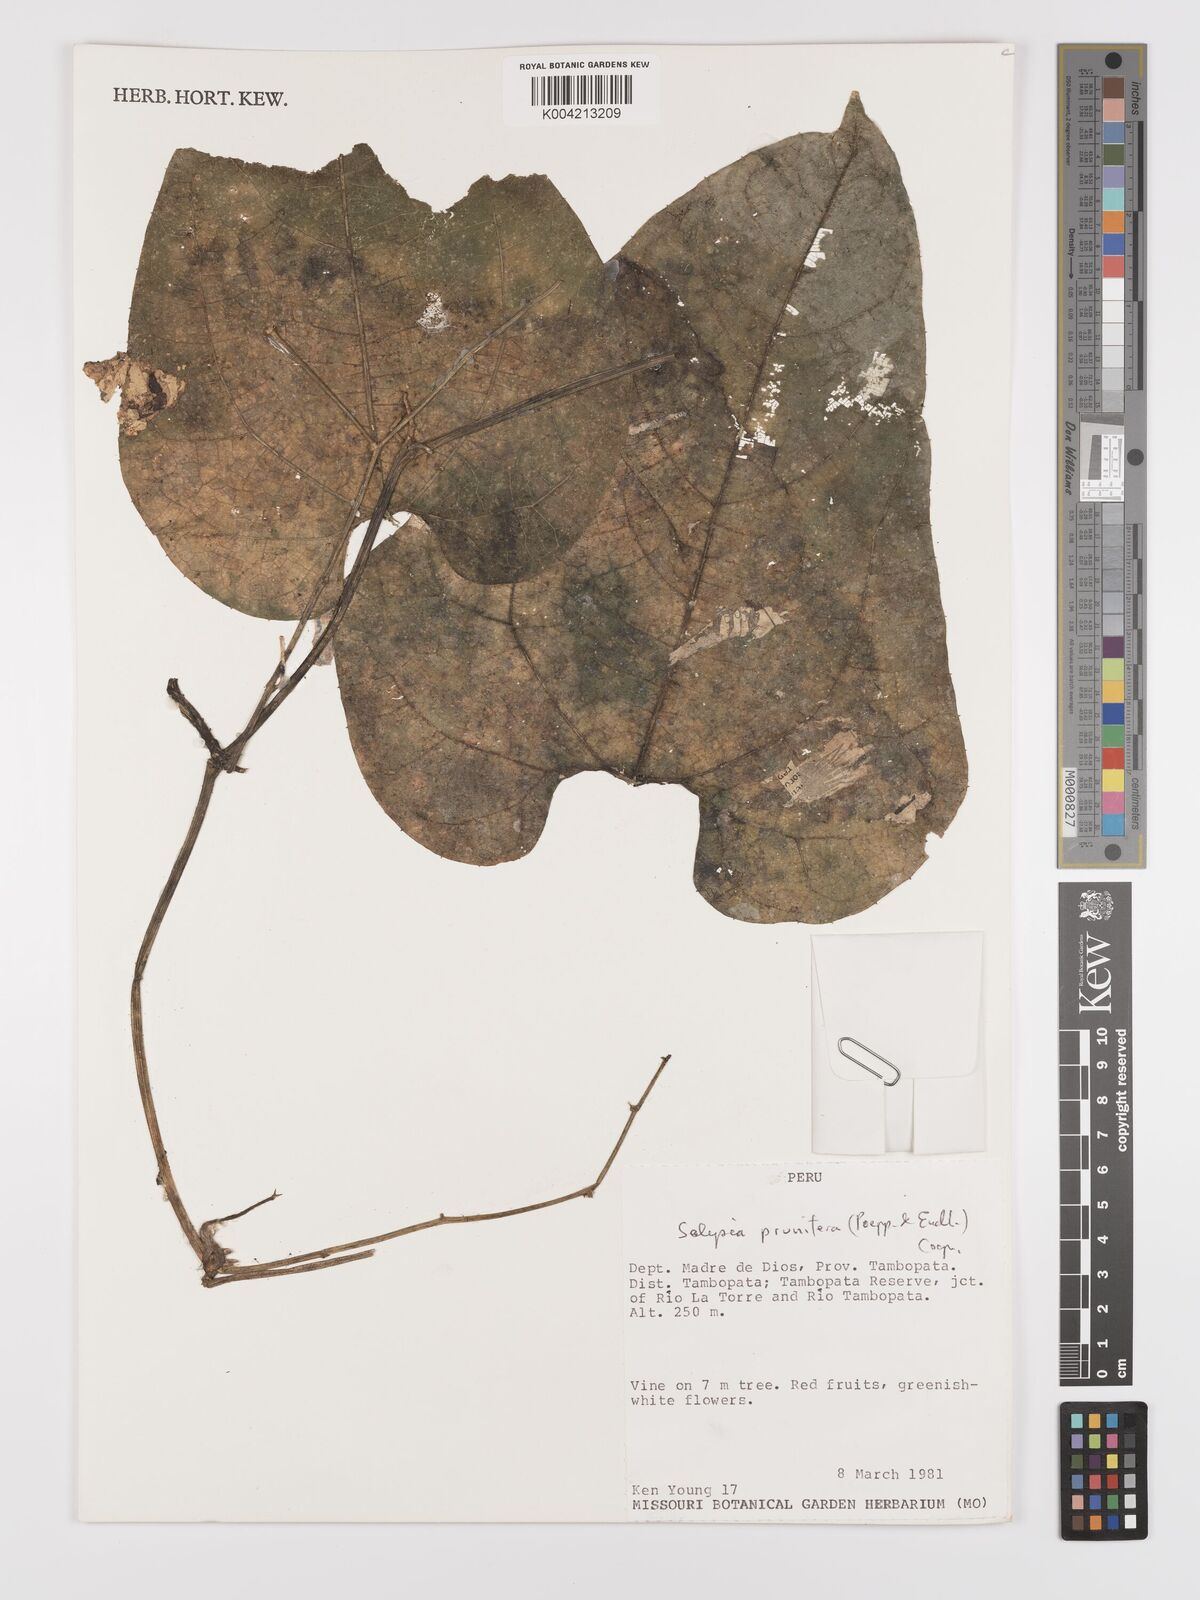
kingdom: Plantae
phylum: Tracheophyta
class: Magnoliopsida
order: Cucurbitales
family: Cucurbitaceae
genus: Cayaponia
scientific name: Cayaponia prunifera
